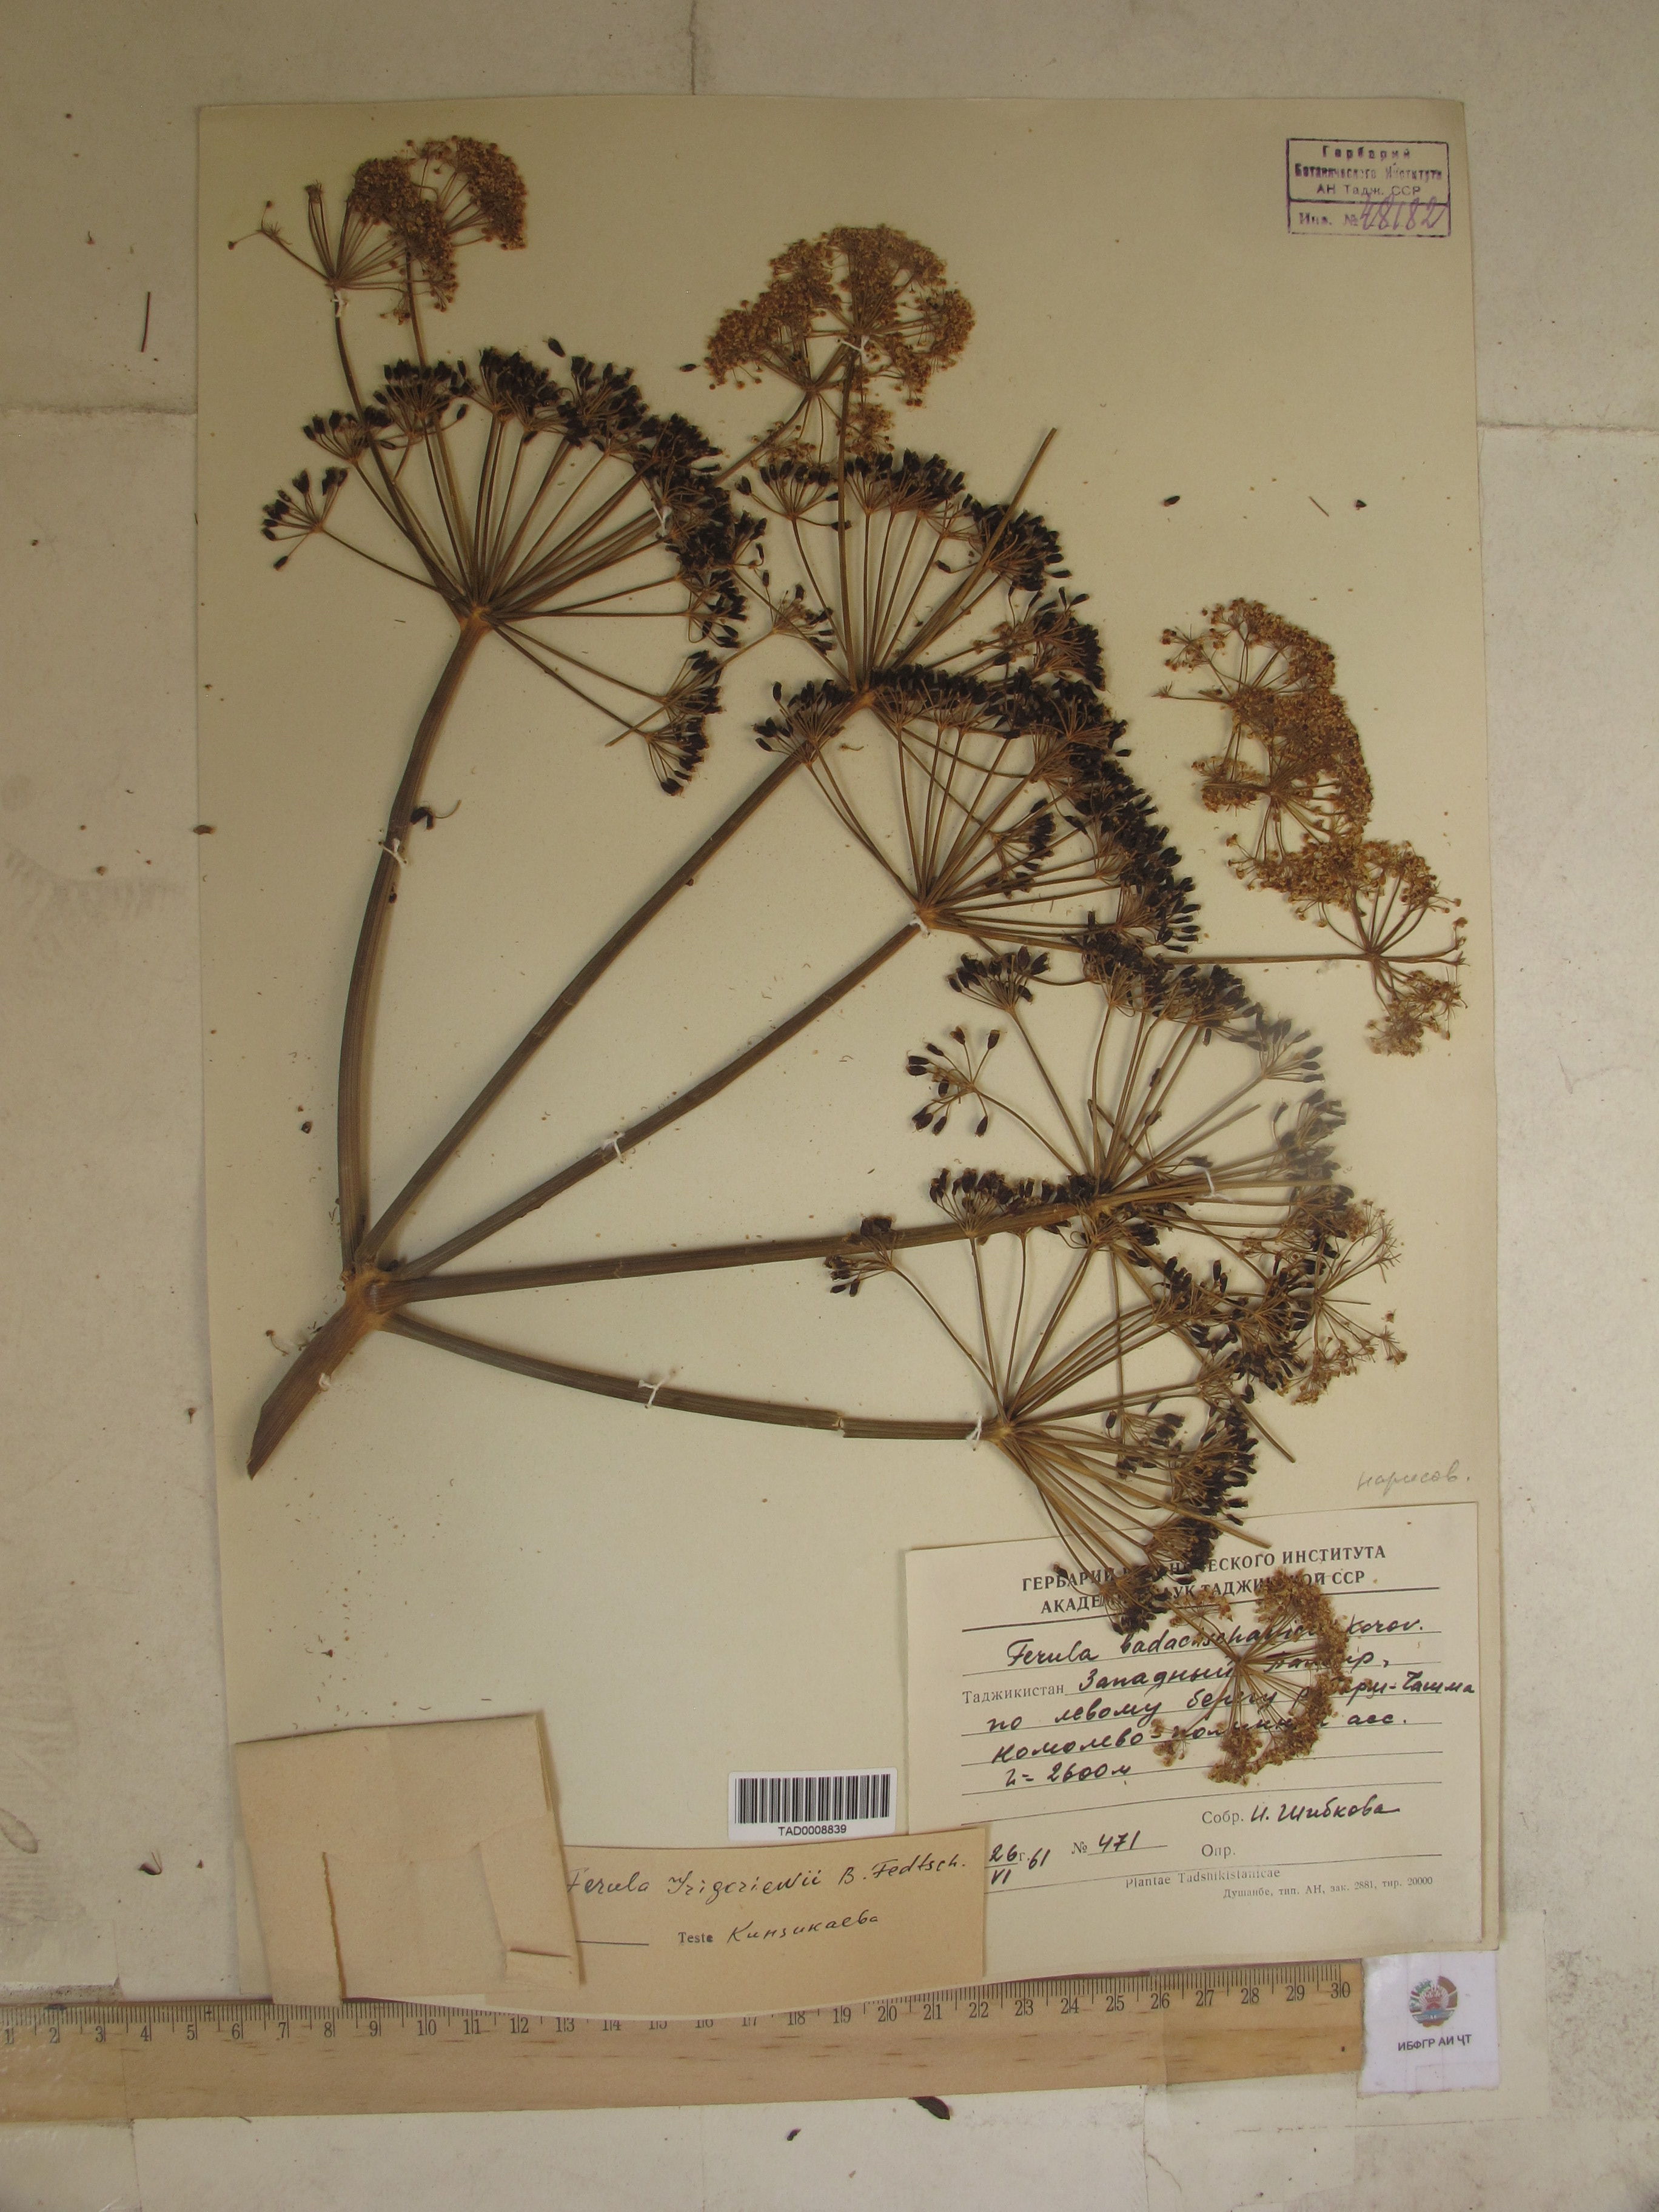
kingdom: Plantae
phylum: Tracheophyta
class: Magnoliopsida
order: Apiales
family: Apiaceae
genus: Ferula
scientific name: Ferula grigoriewii
